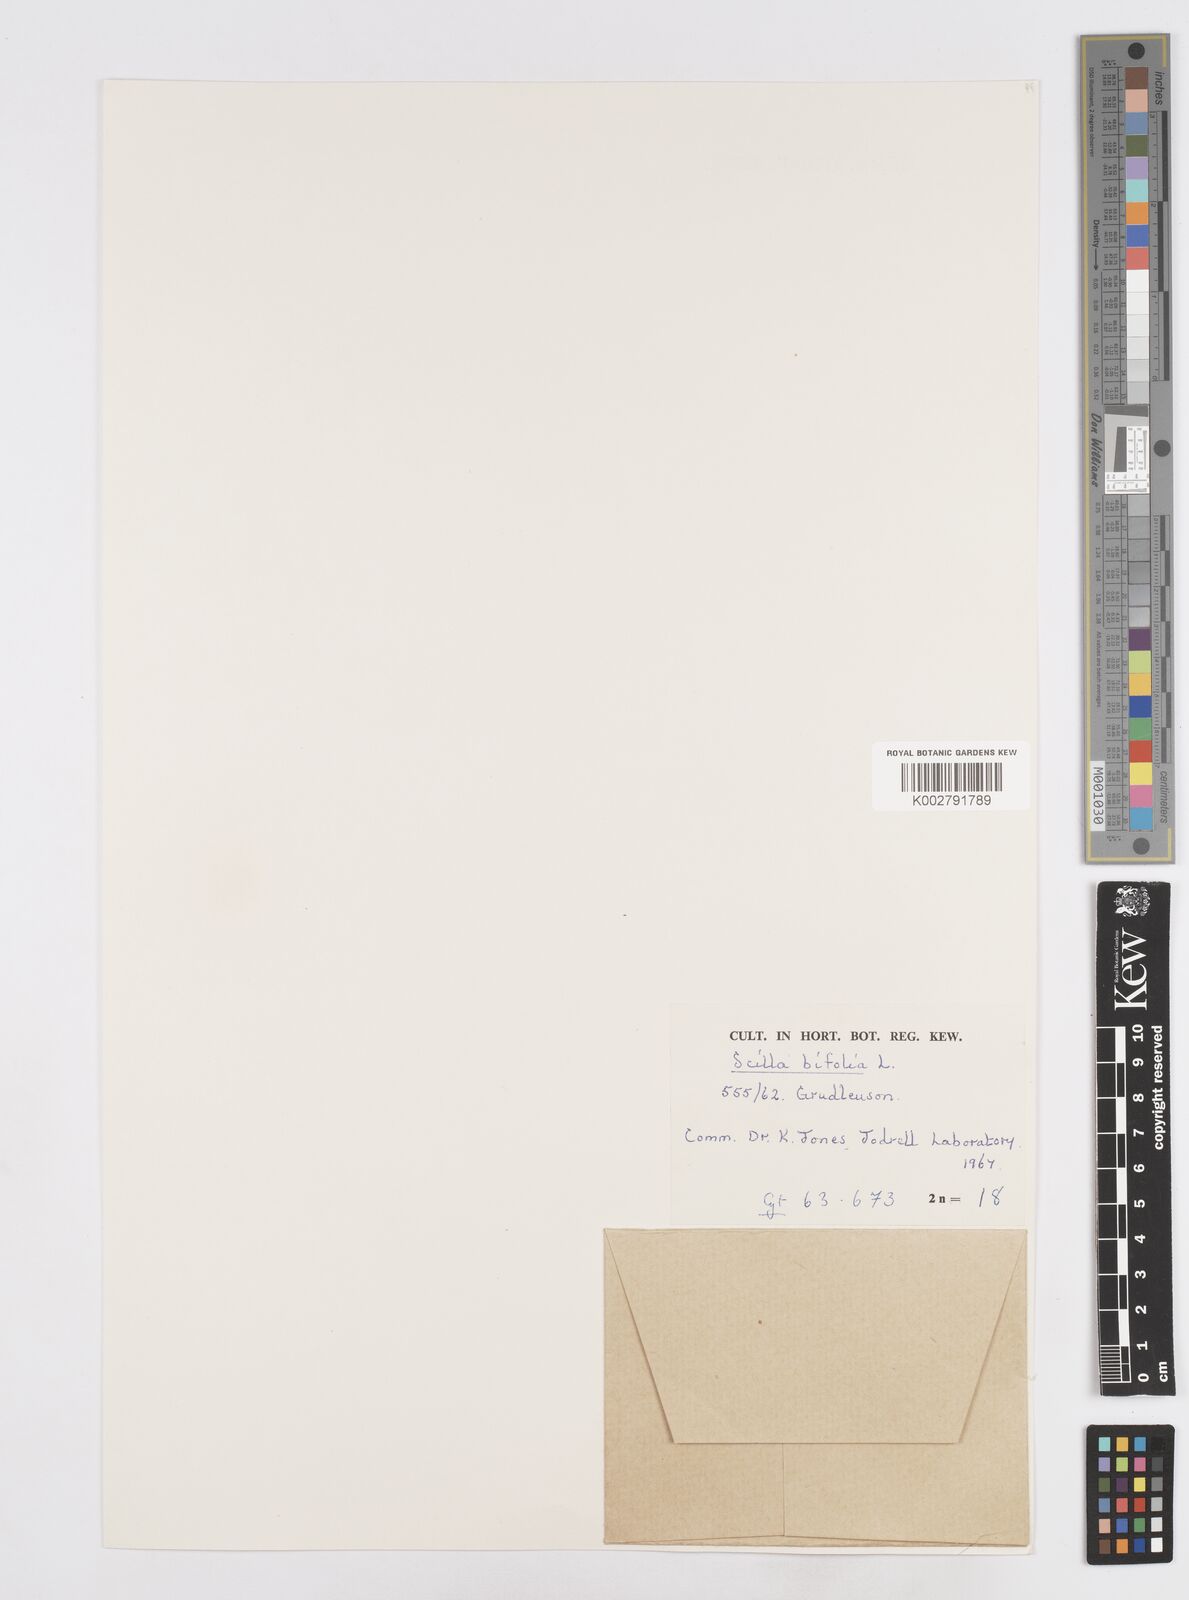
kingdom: Plantae
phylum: Tracheophyta
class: Liliopsida
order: Asparagales
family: Asparagaceae
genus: Scilla
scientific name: Scilla bifolia
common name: Alpine squill
